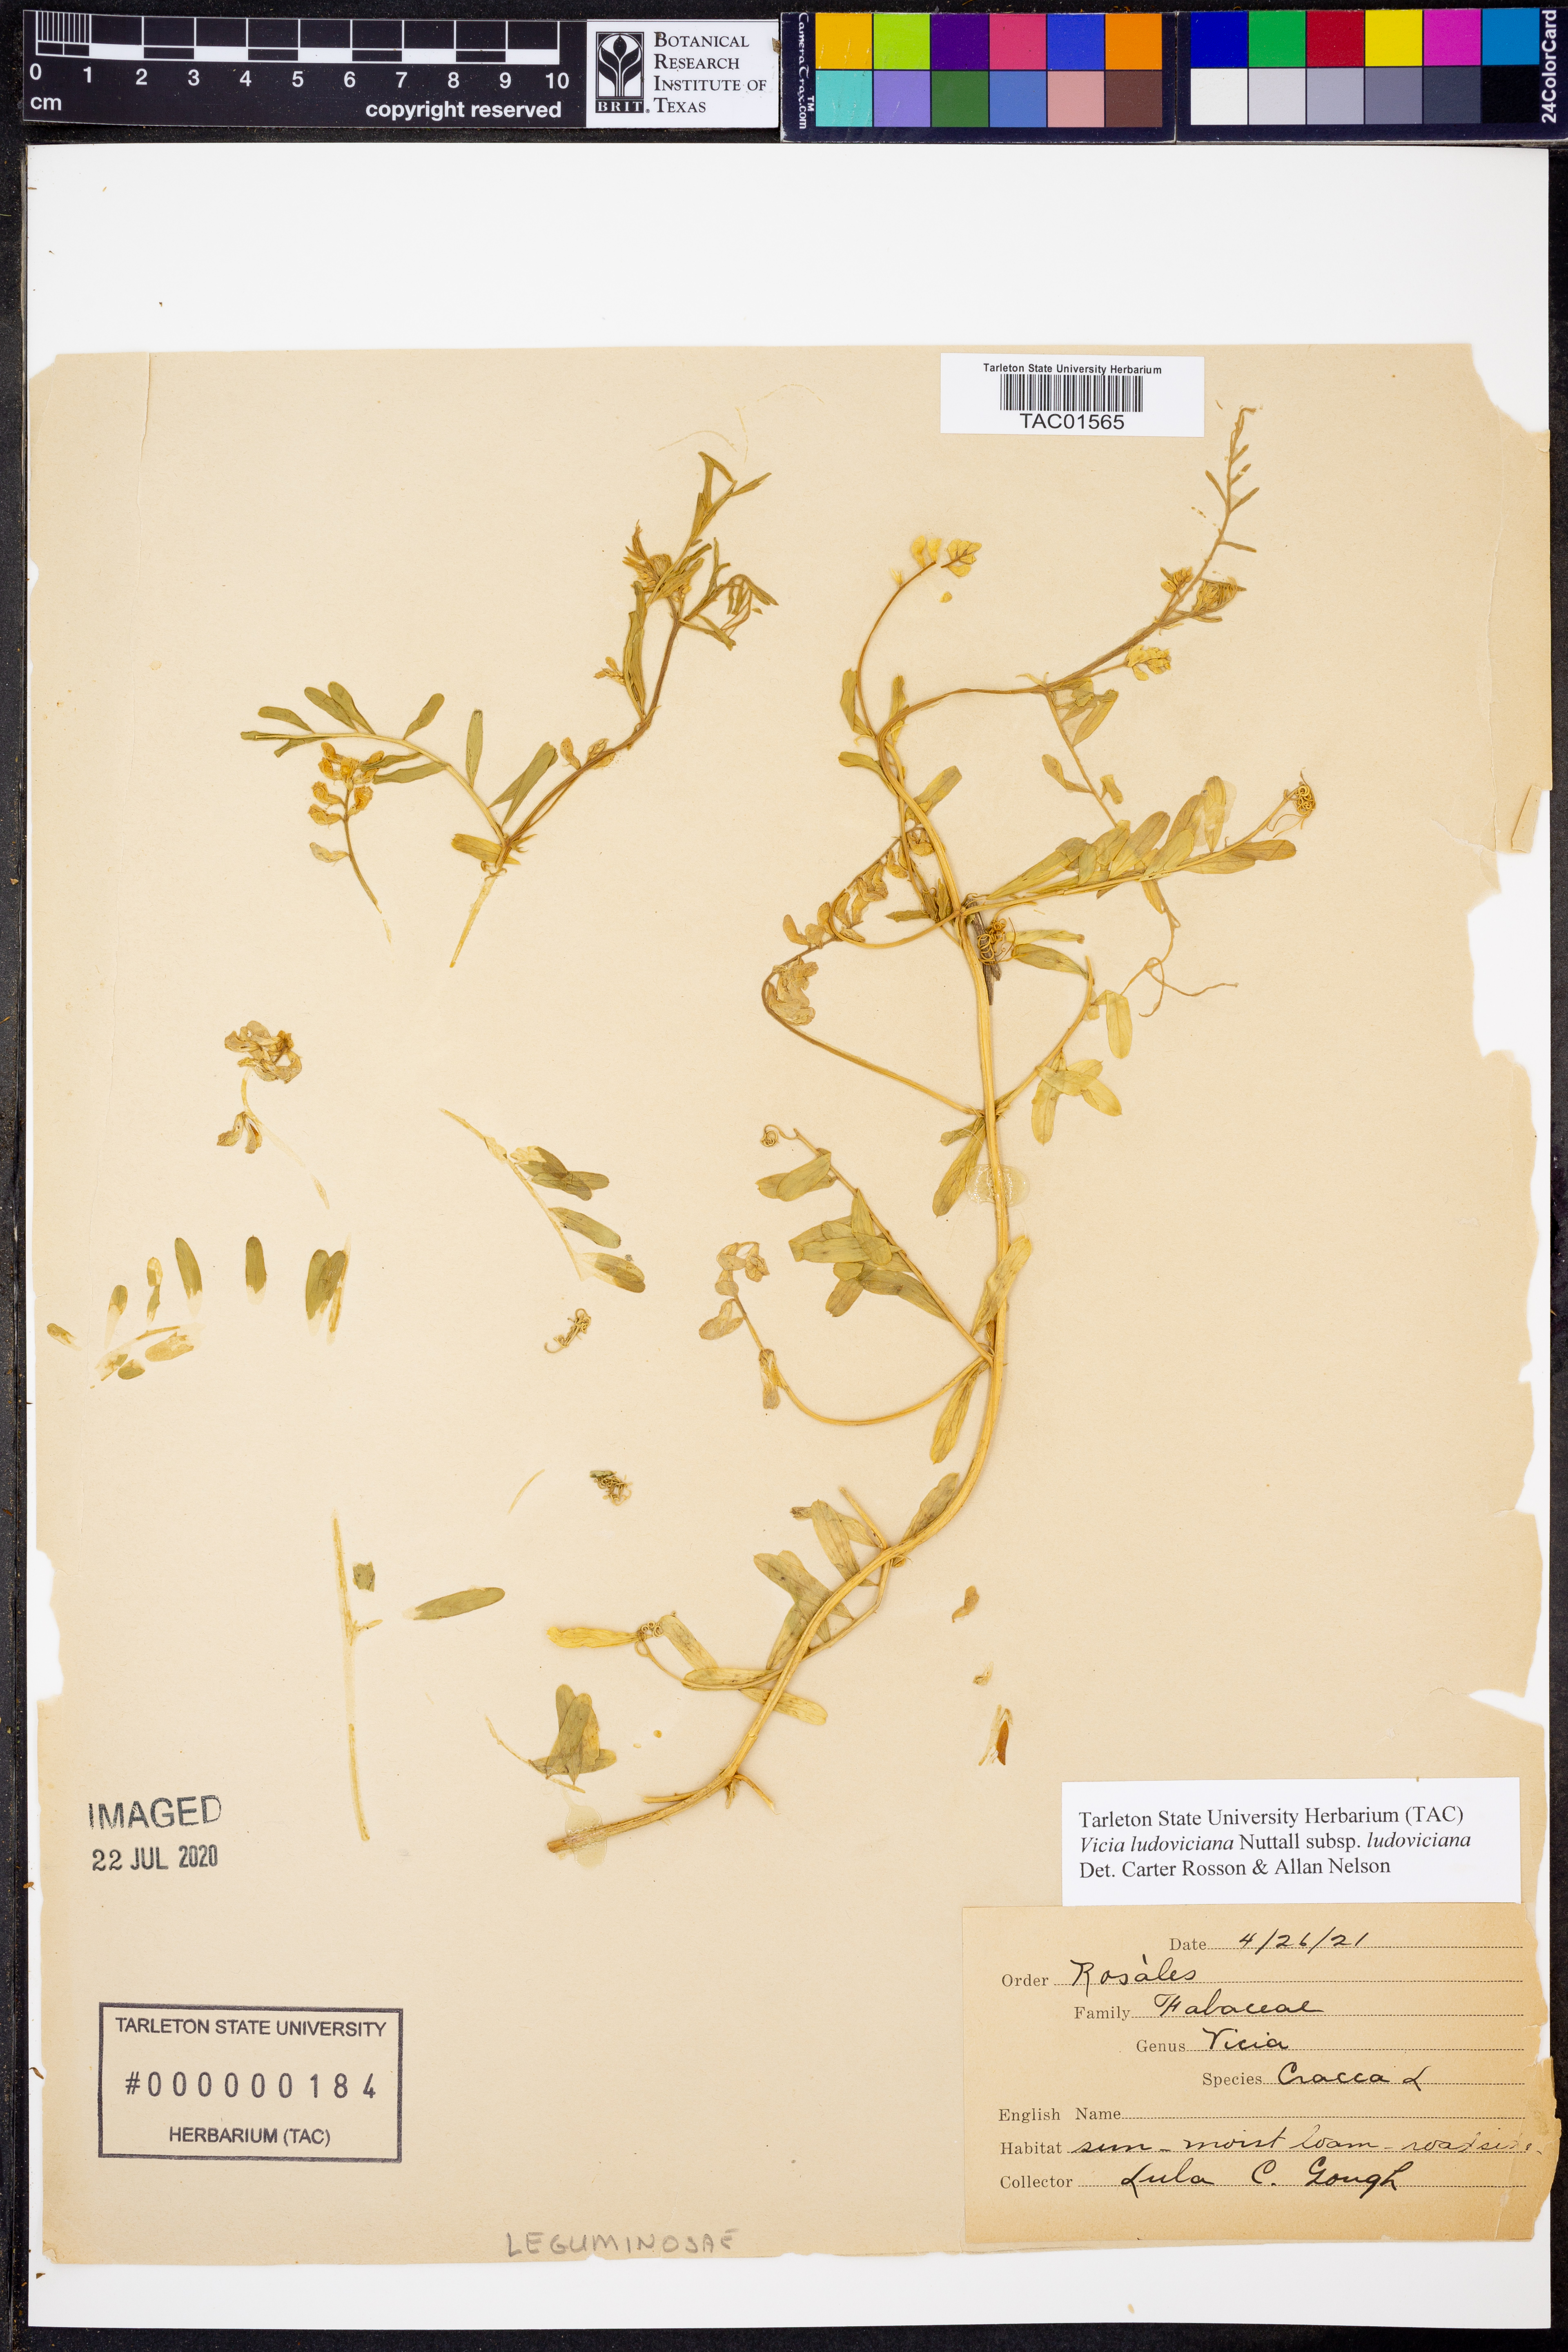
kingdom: Plantae
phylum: Tracheophyta
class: Magnoliopsida
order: Fabales
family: Fabaceae
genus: Vicia
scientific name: Vicia ludoviciana
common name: Louisiana vetch
